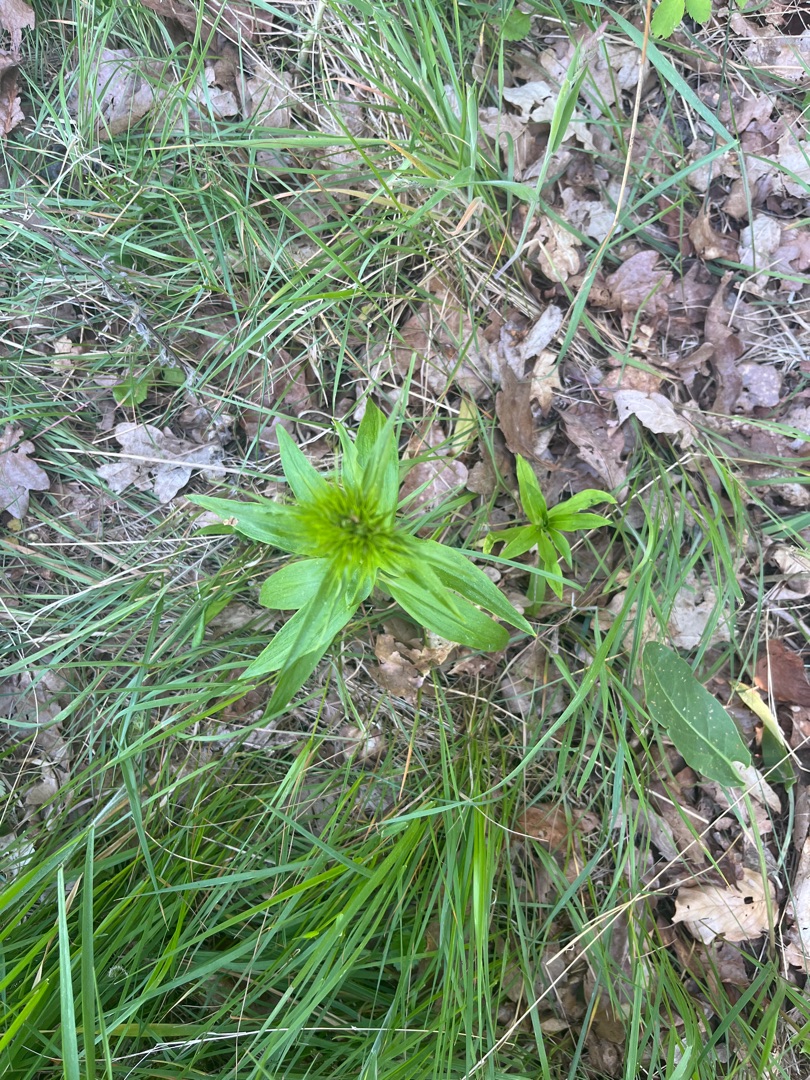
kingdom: Plantae
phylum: Tracheophyta
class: Magnoliopsida
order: Caryophyllales
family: Caryophyllaceae
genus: Dianthus
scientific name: Dianthus barbatus
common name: Studenter-nellike
